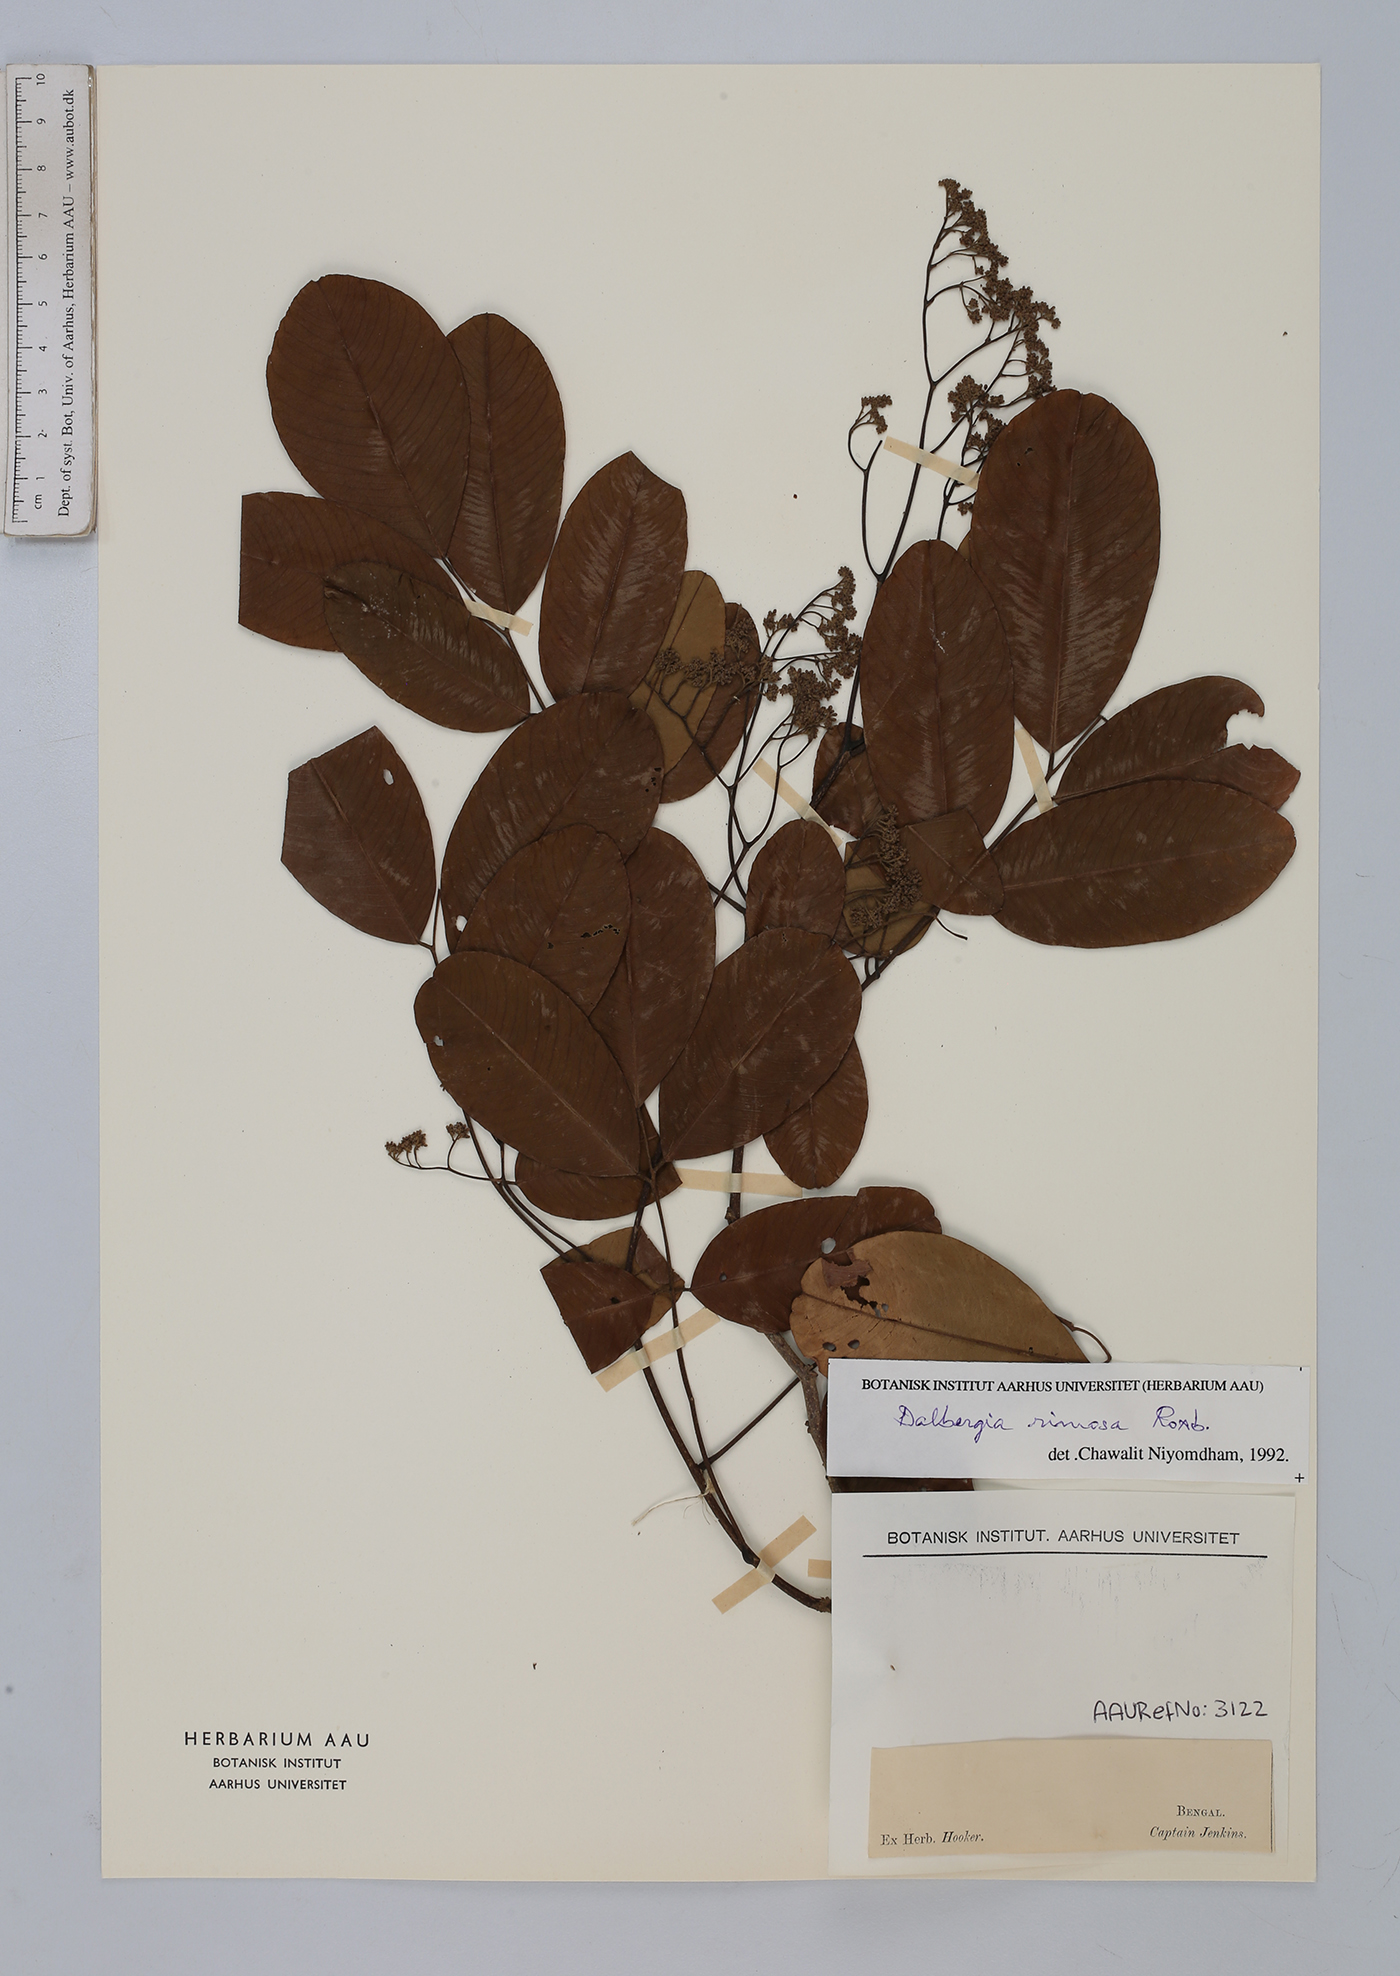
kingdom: Plantae
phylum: Tracheophyta
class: Magnoliopsida
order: Fabales
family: Fabaceae
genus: Dalbergia
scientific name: Dalbergia rimosa
